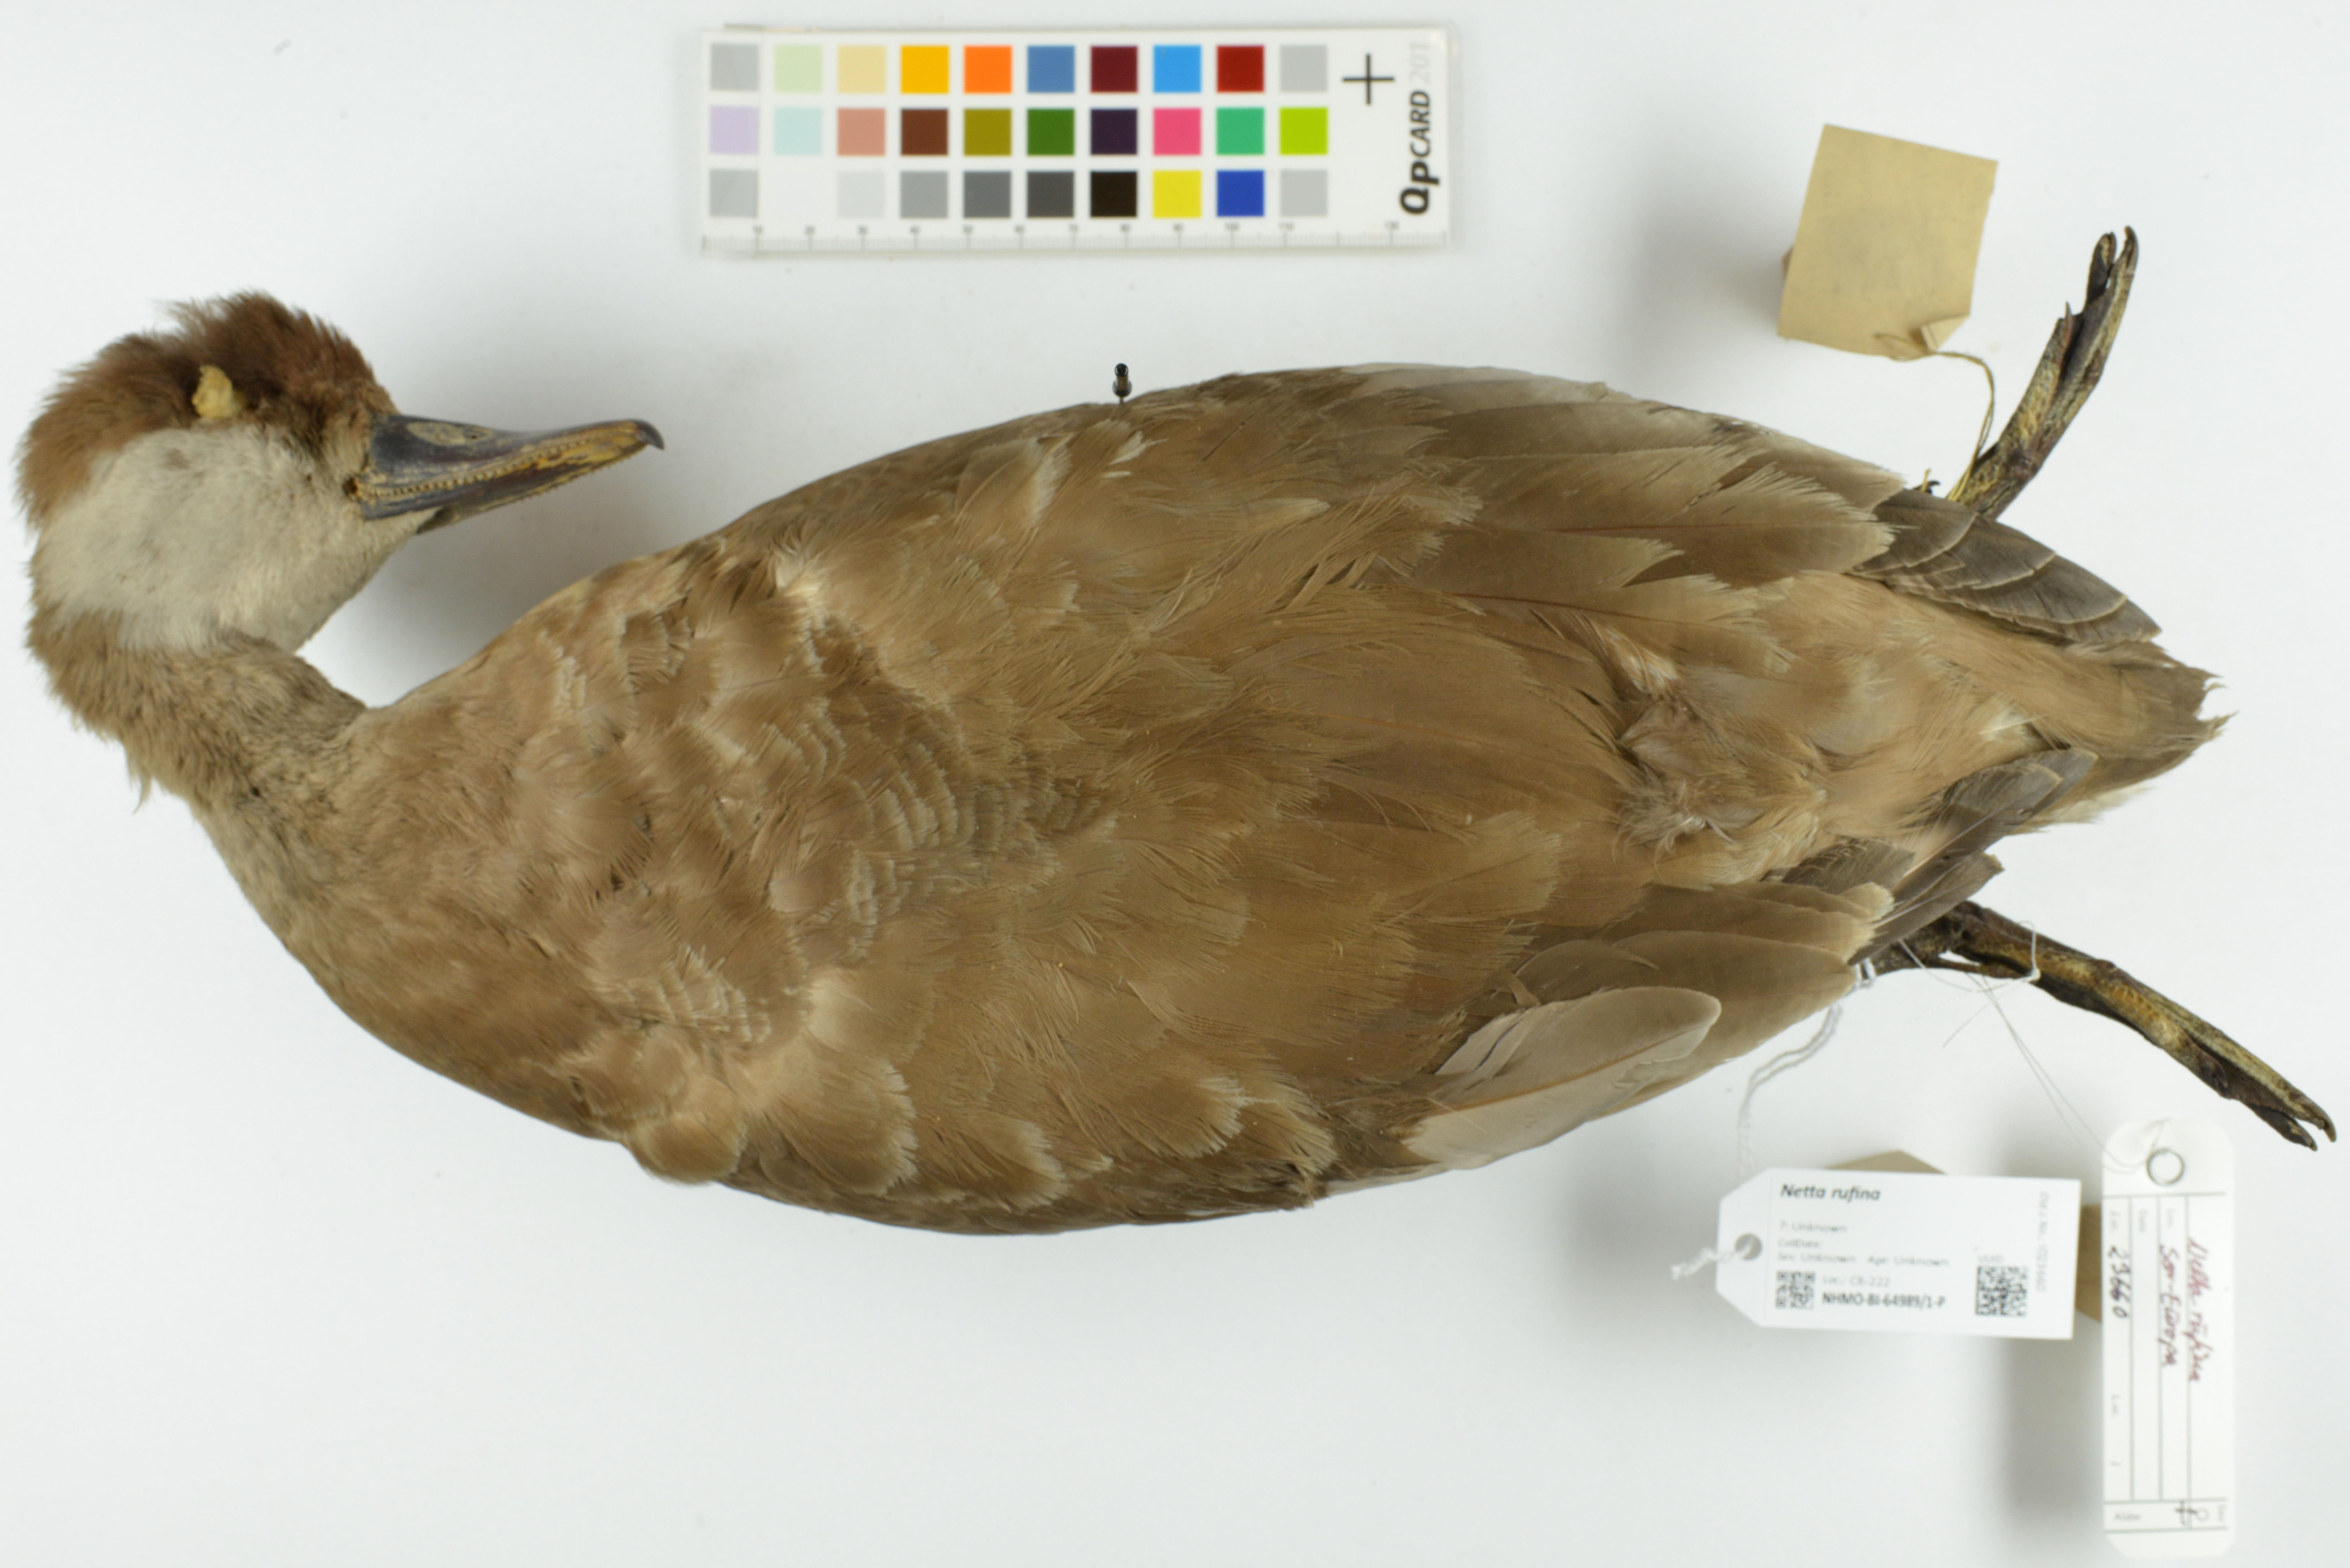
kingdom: Animalia
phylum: Chordata
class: Aves
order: Anseriformes
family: Anatidae
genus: Netta
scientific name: Netta rufina
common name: Red-crested pochard
